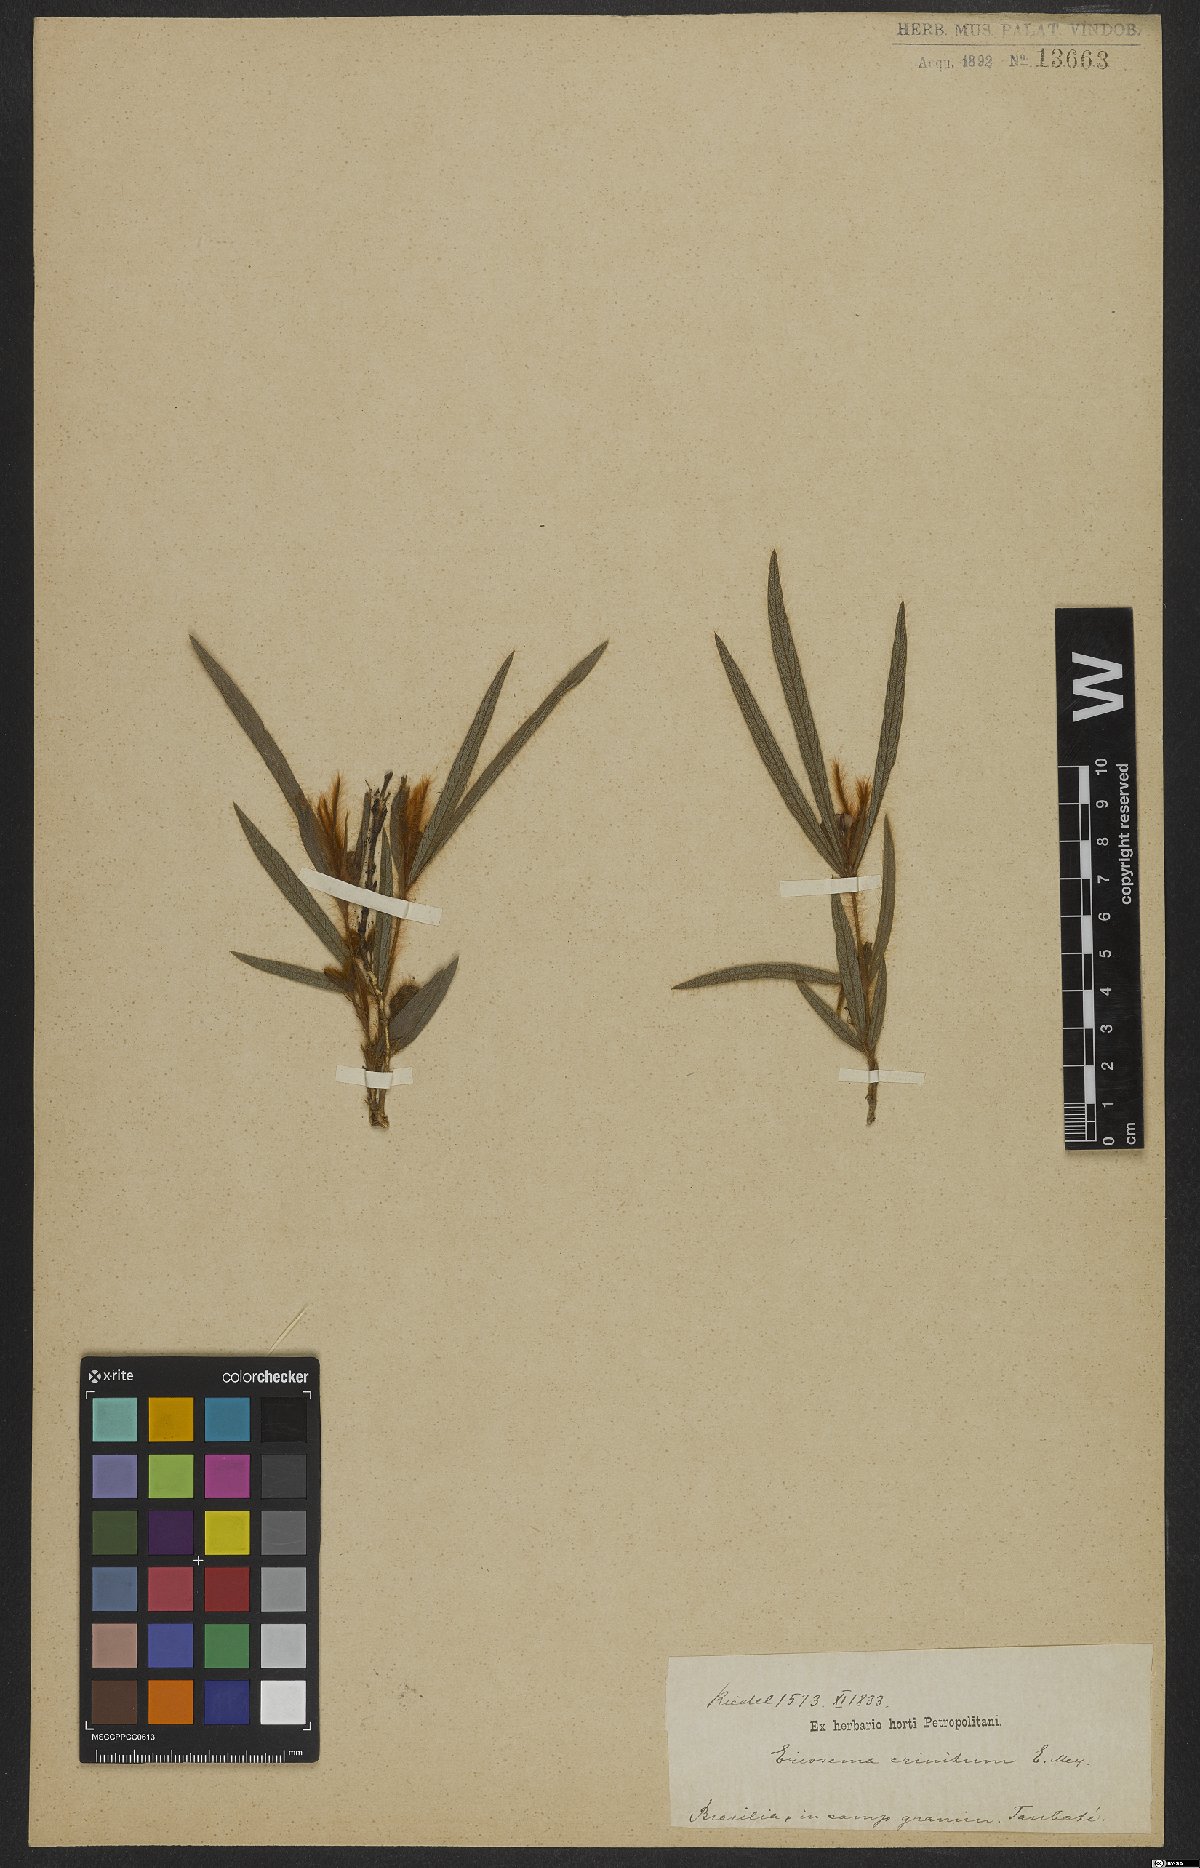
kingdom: Plantae
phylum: Tracheophyta
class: Magnoliopsida
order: Fabales
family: Fabaceae
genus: Eriosema
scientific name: Eriosema crinitum
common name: Sand pea
